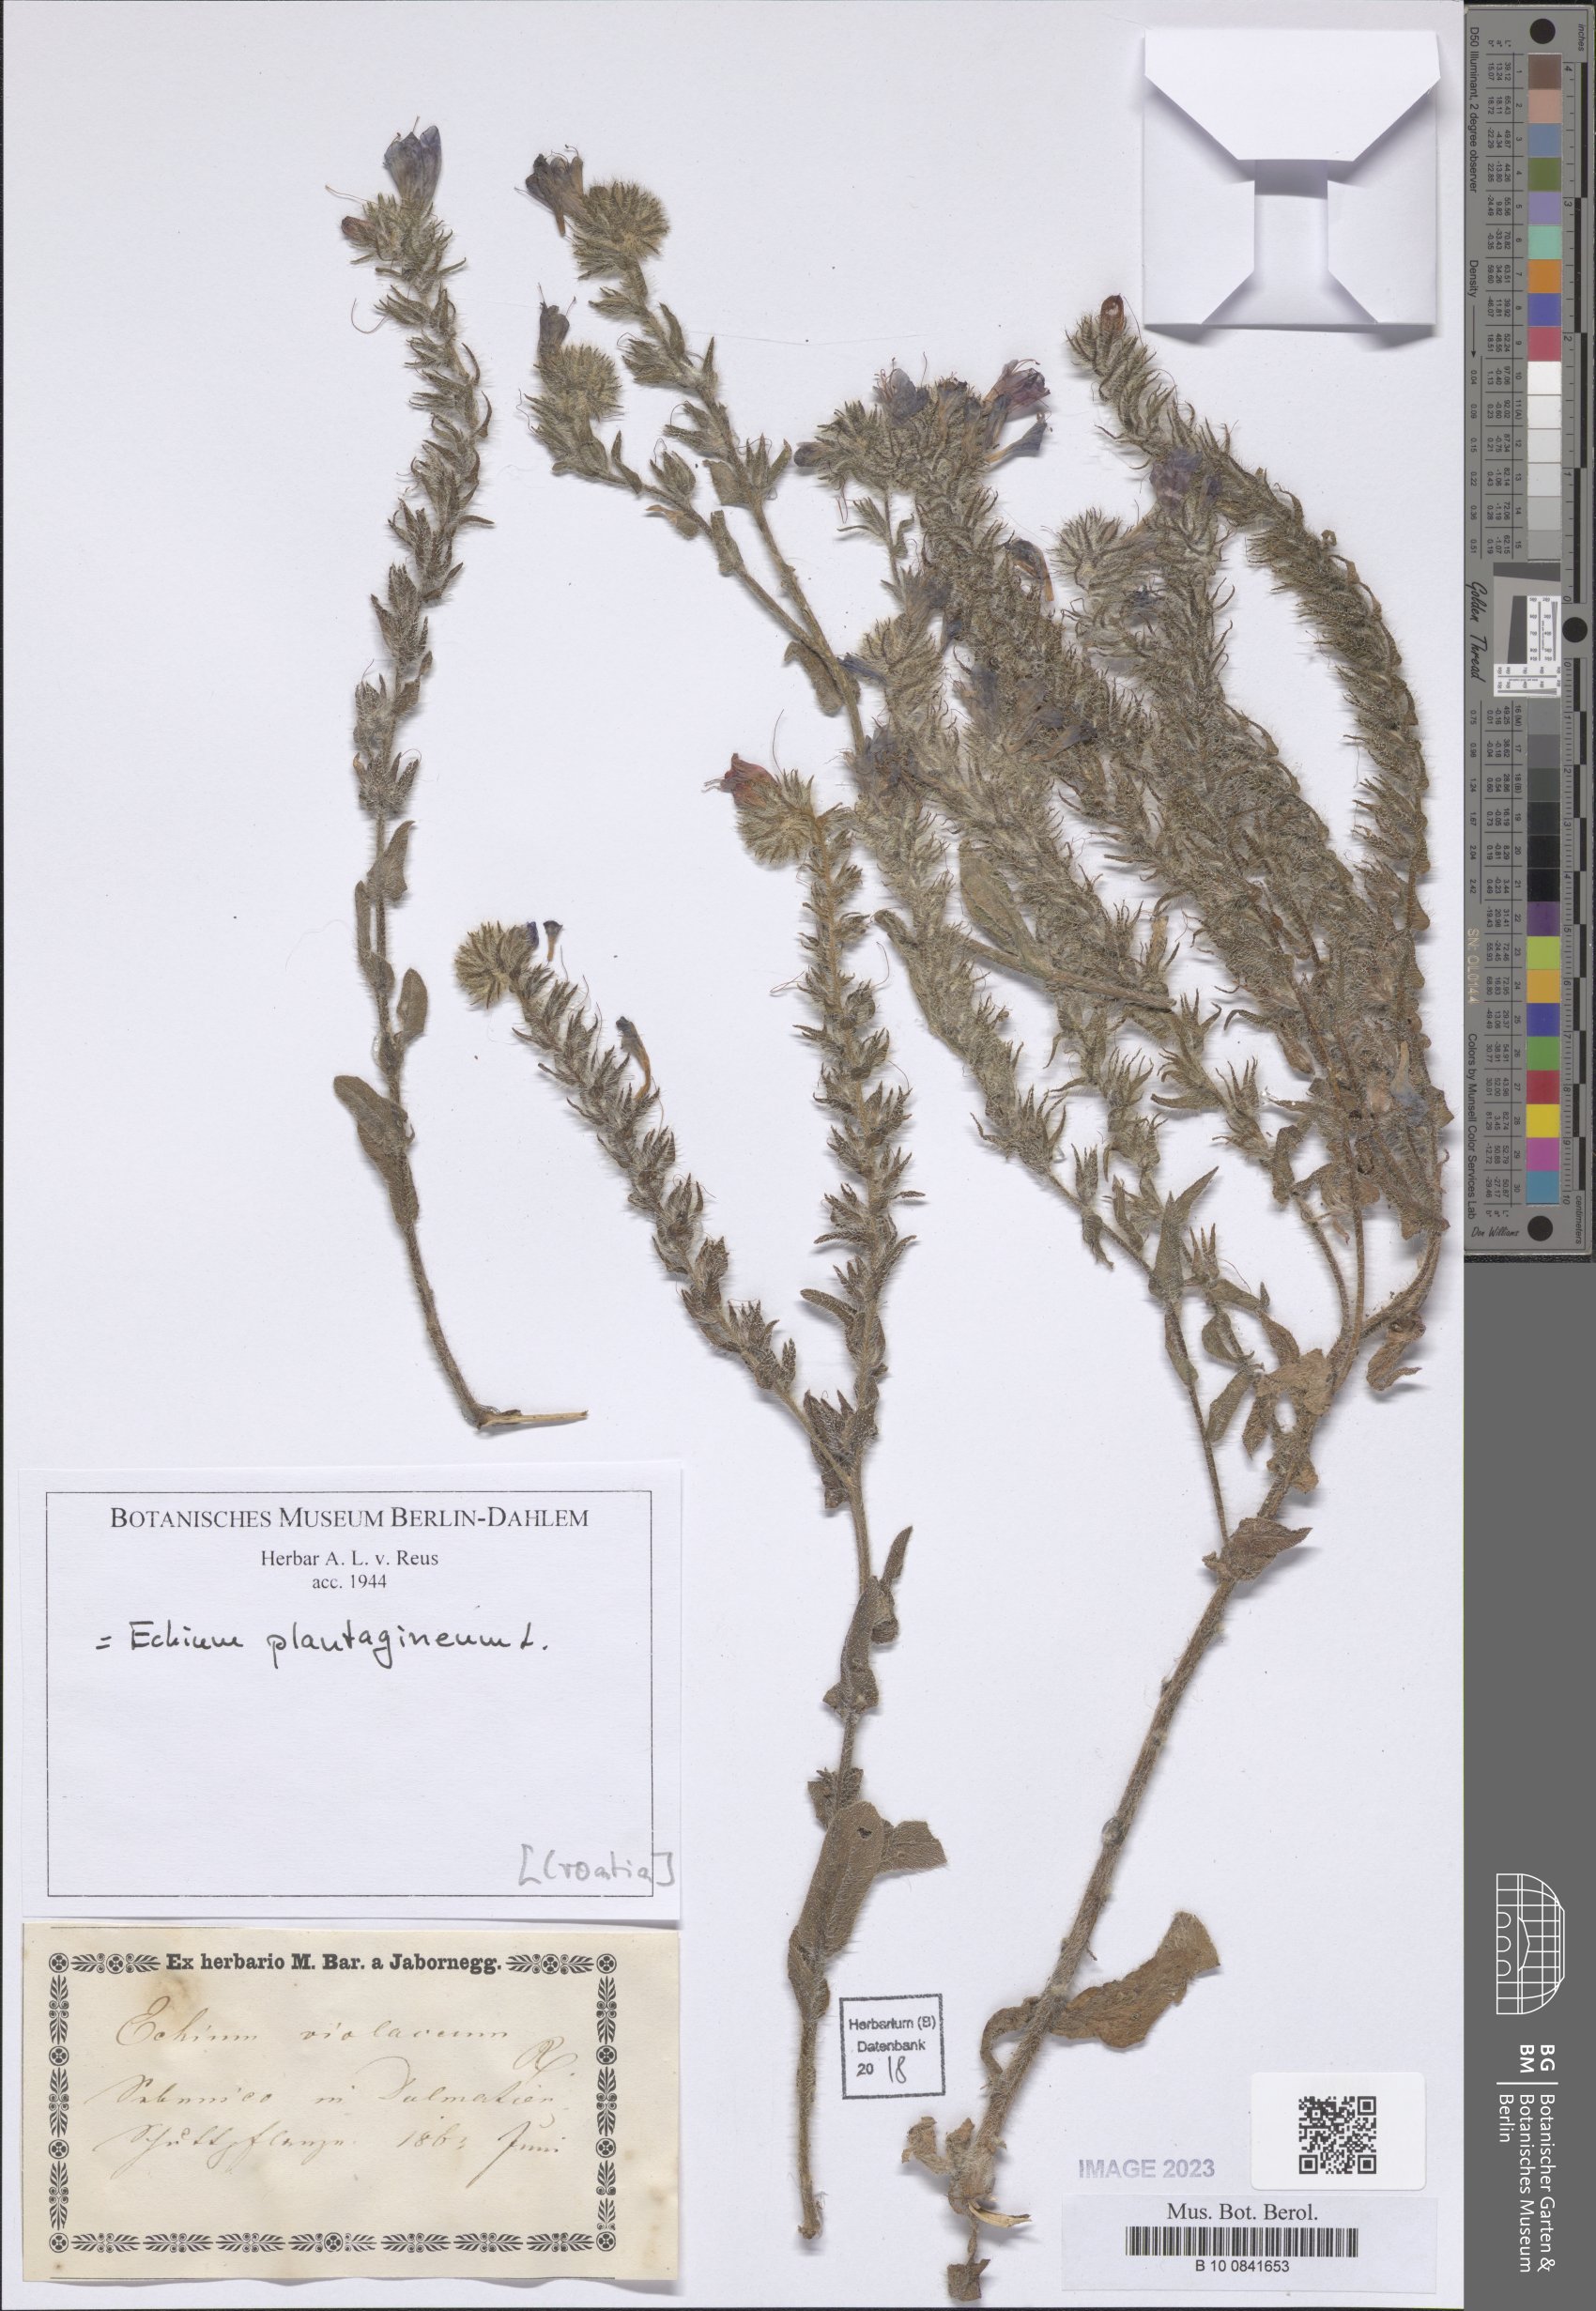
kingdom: Plantae
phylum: Tracheophyta
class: Magnoliopsida
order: Boraginales
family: Boraginaceae
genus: Echium
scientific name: Echium plantagineum
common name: Purple viper's-bugloss
